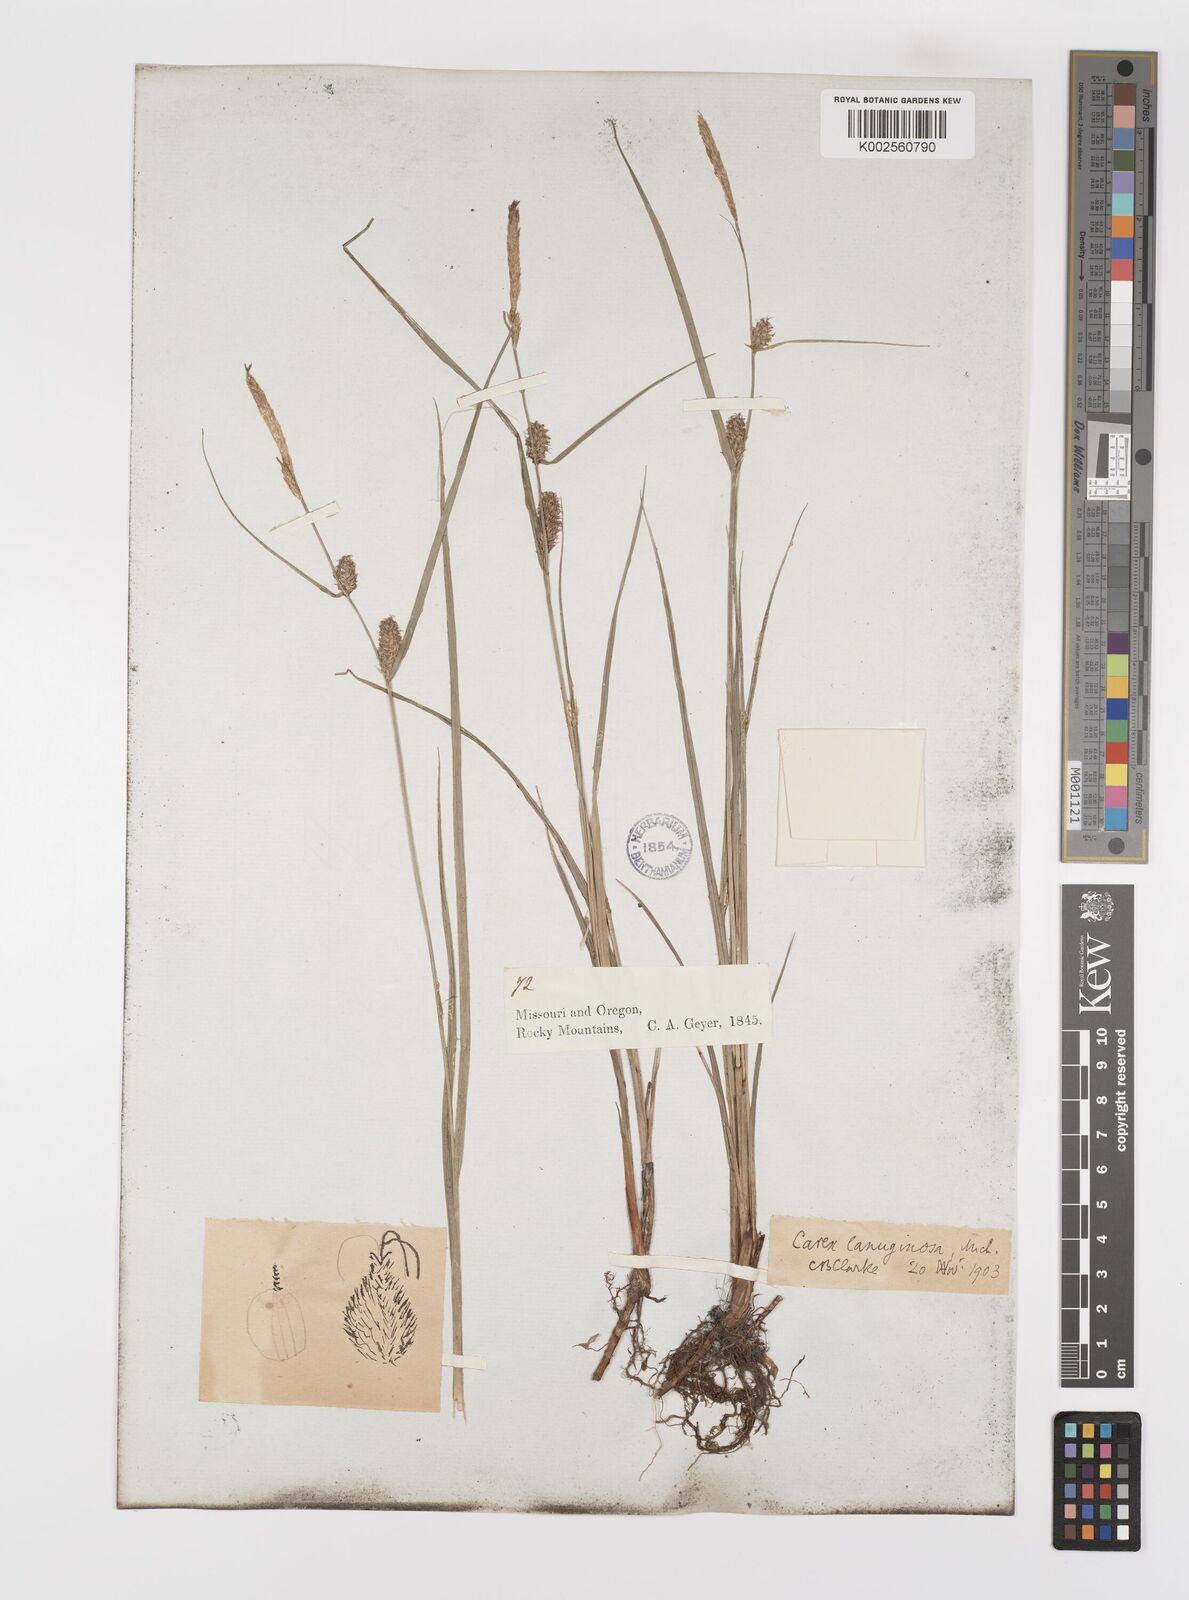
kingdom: Plantae
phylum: Tracheophyta
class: Liliopsida
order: Poales
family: Cyperaceae
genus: Carex
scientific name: Carex lasiocarpa
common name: Slender sedge
